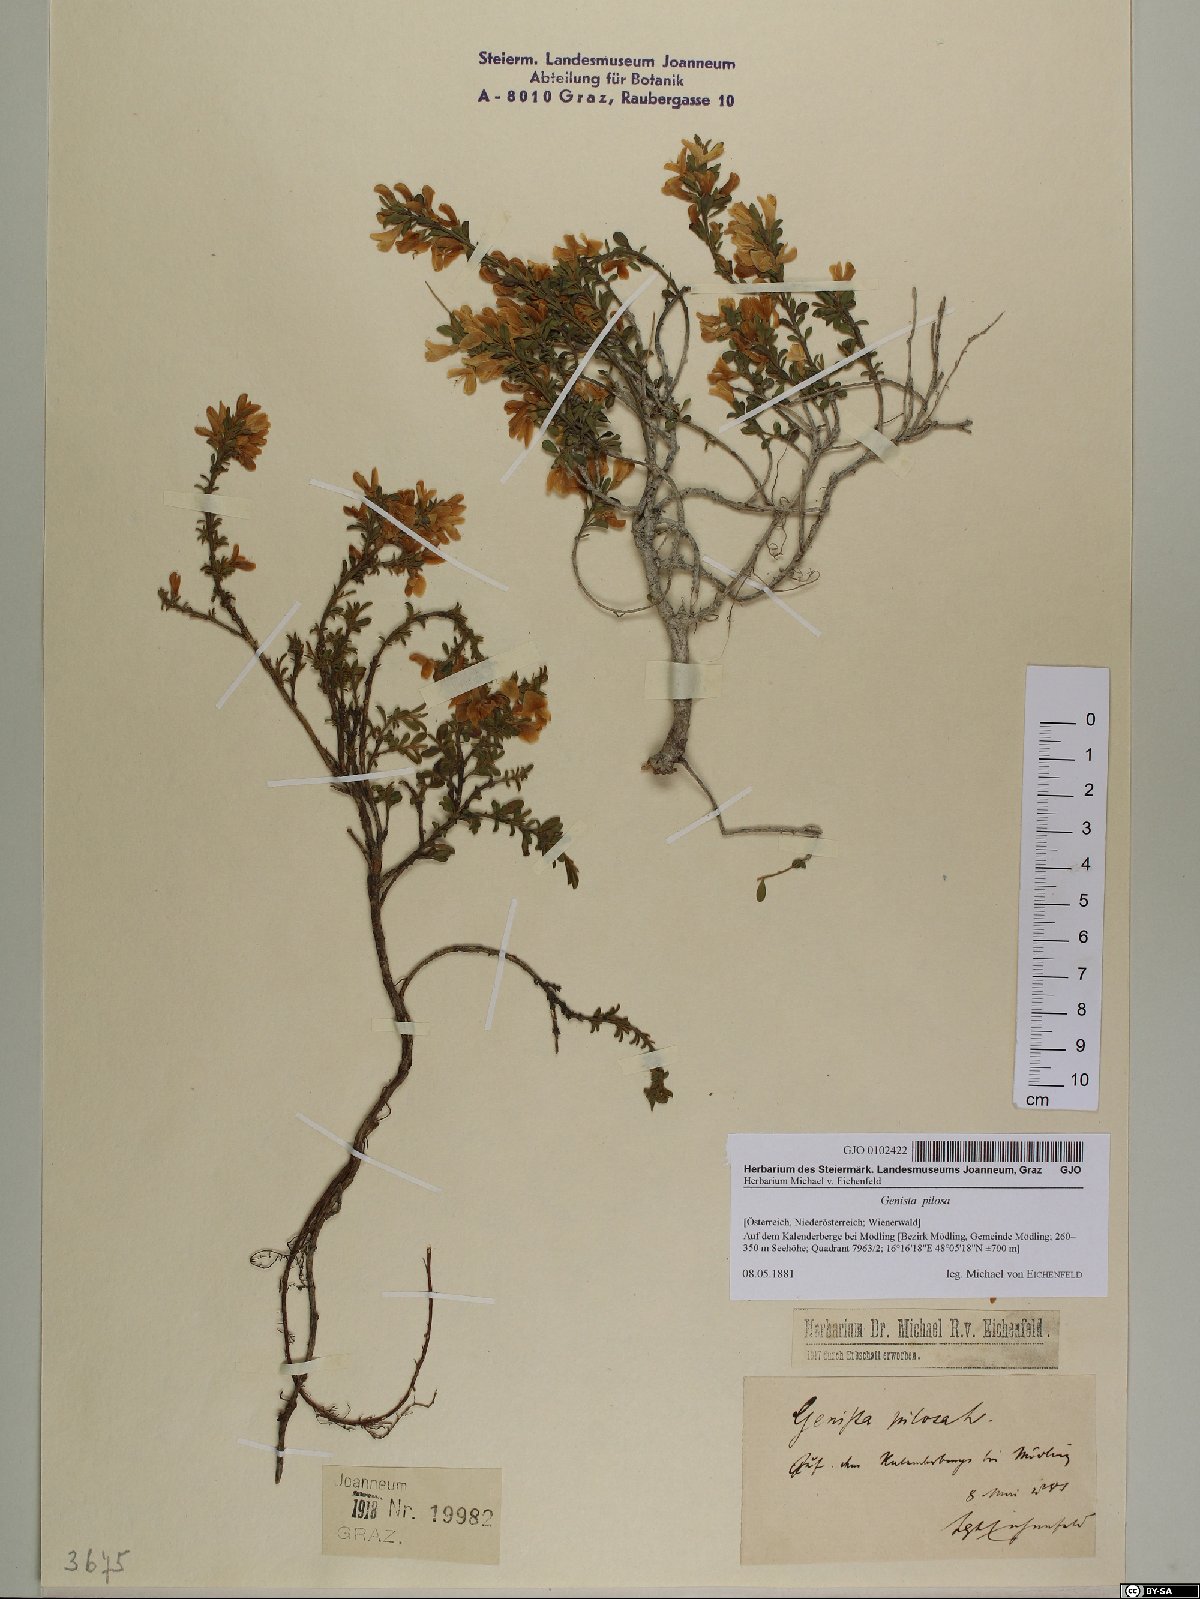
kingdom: Plantae
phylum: Tracheophyta
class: Magnoliopsida
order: Fabales
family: Fabaceae
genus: Genista
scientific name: Genista pilosa
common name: Hairy greenweed
